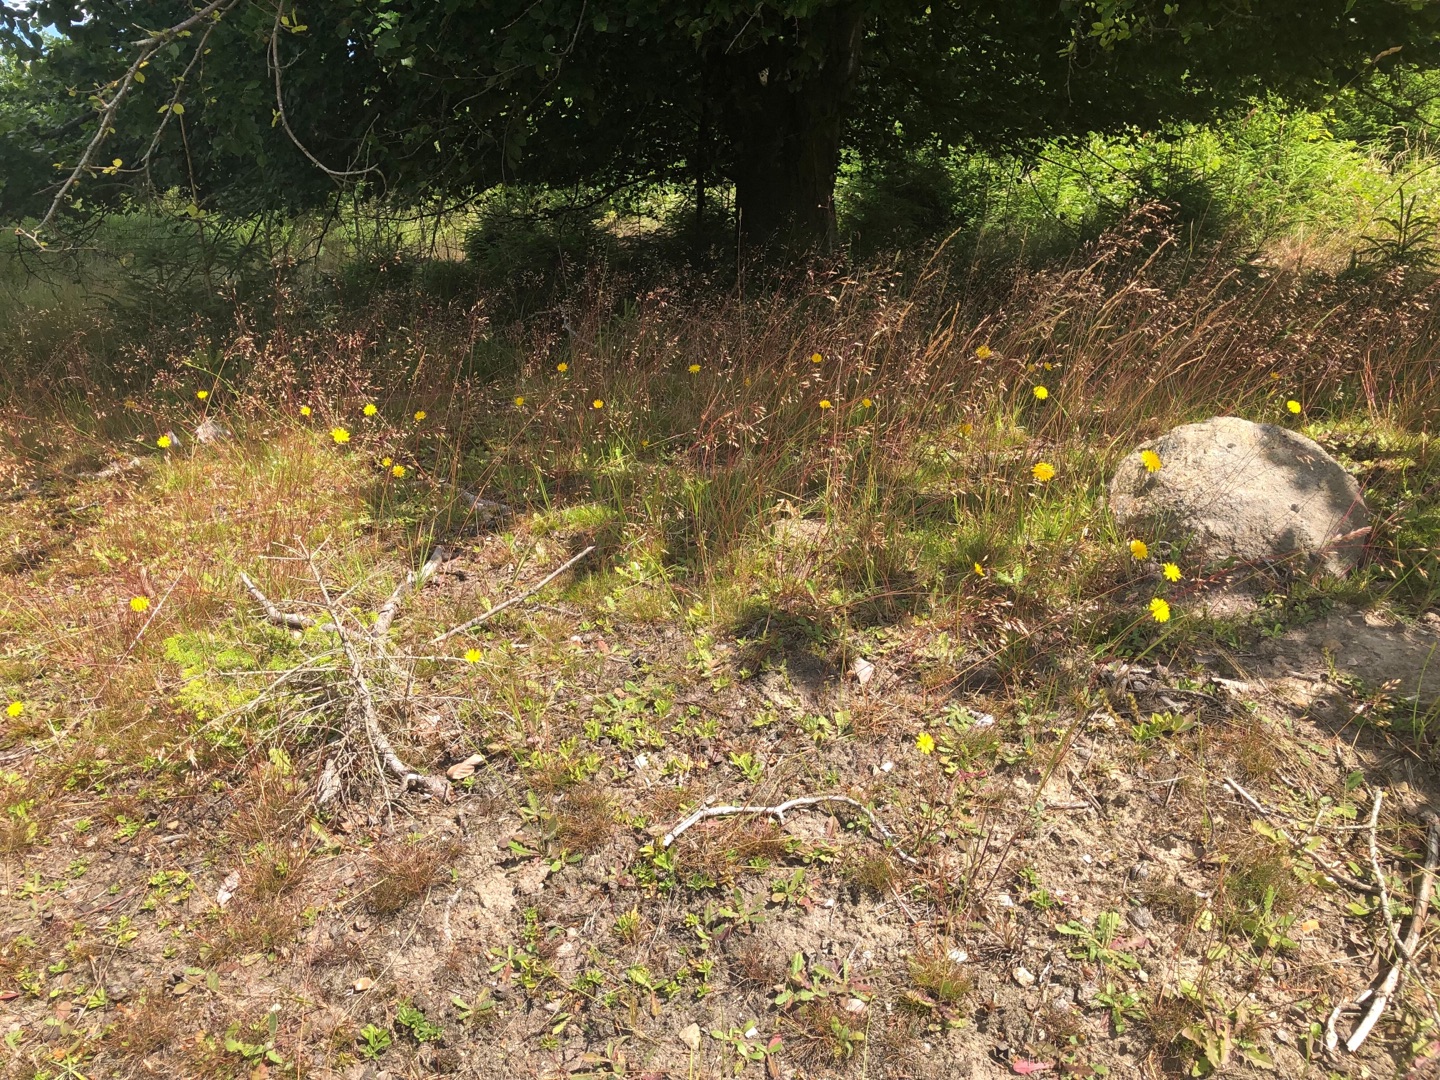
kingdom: Plantae
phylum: Tracheophyta
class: Liliopsida
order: Poales
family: Poaceae
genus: Avenella
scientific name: Avenella flexuosa
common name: Bølget bunke
